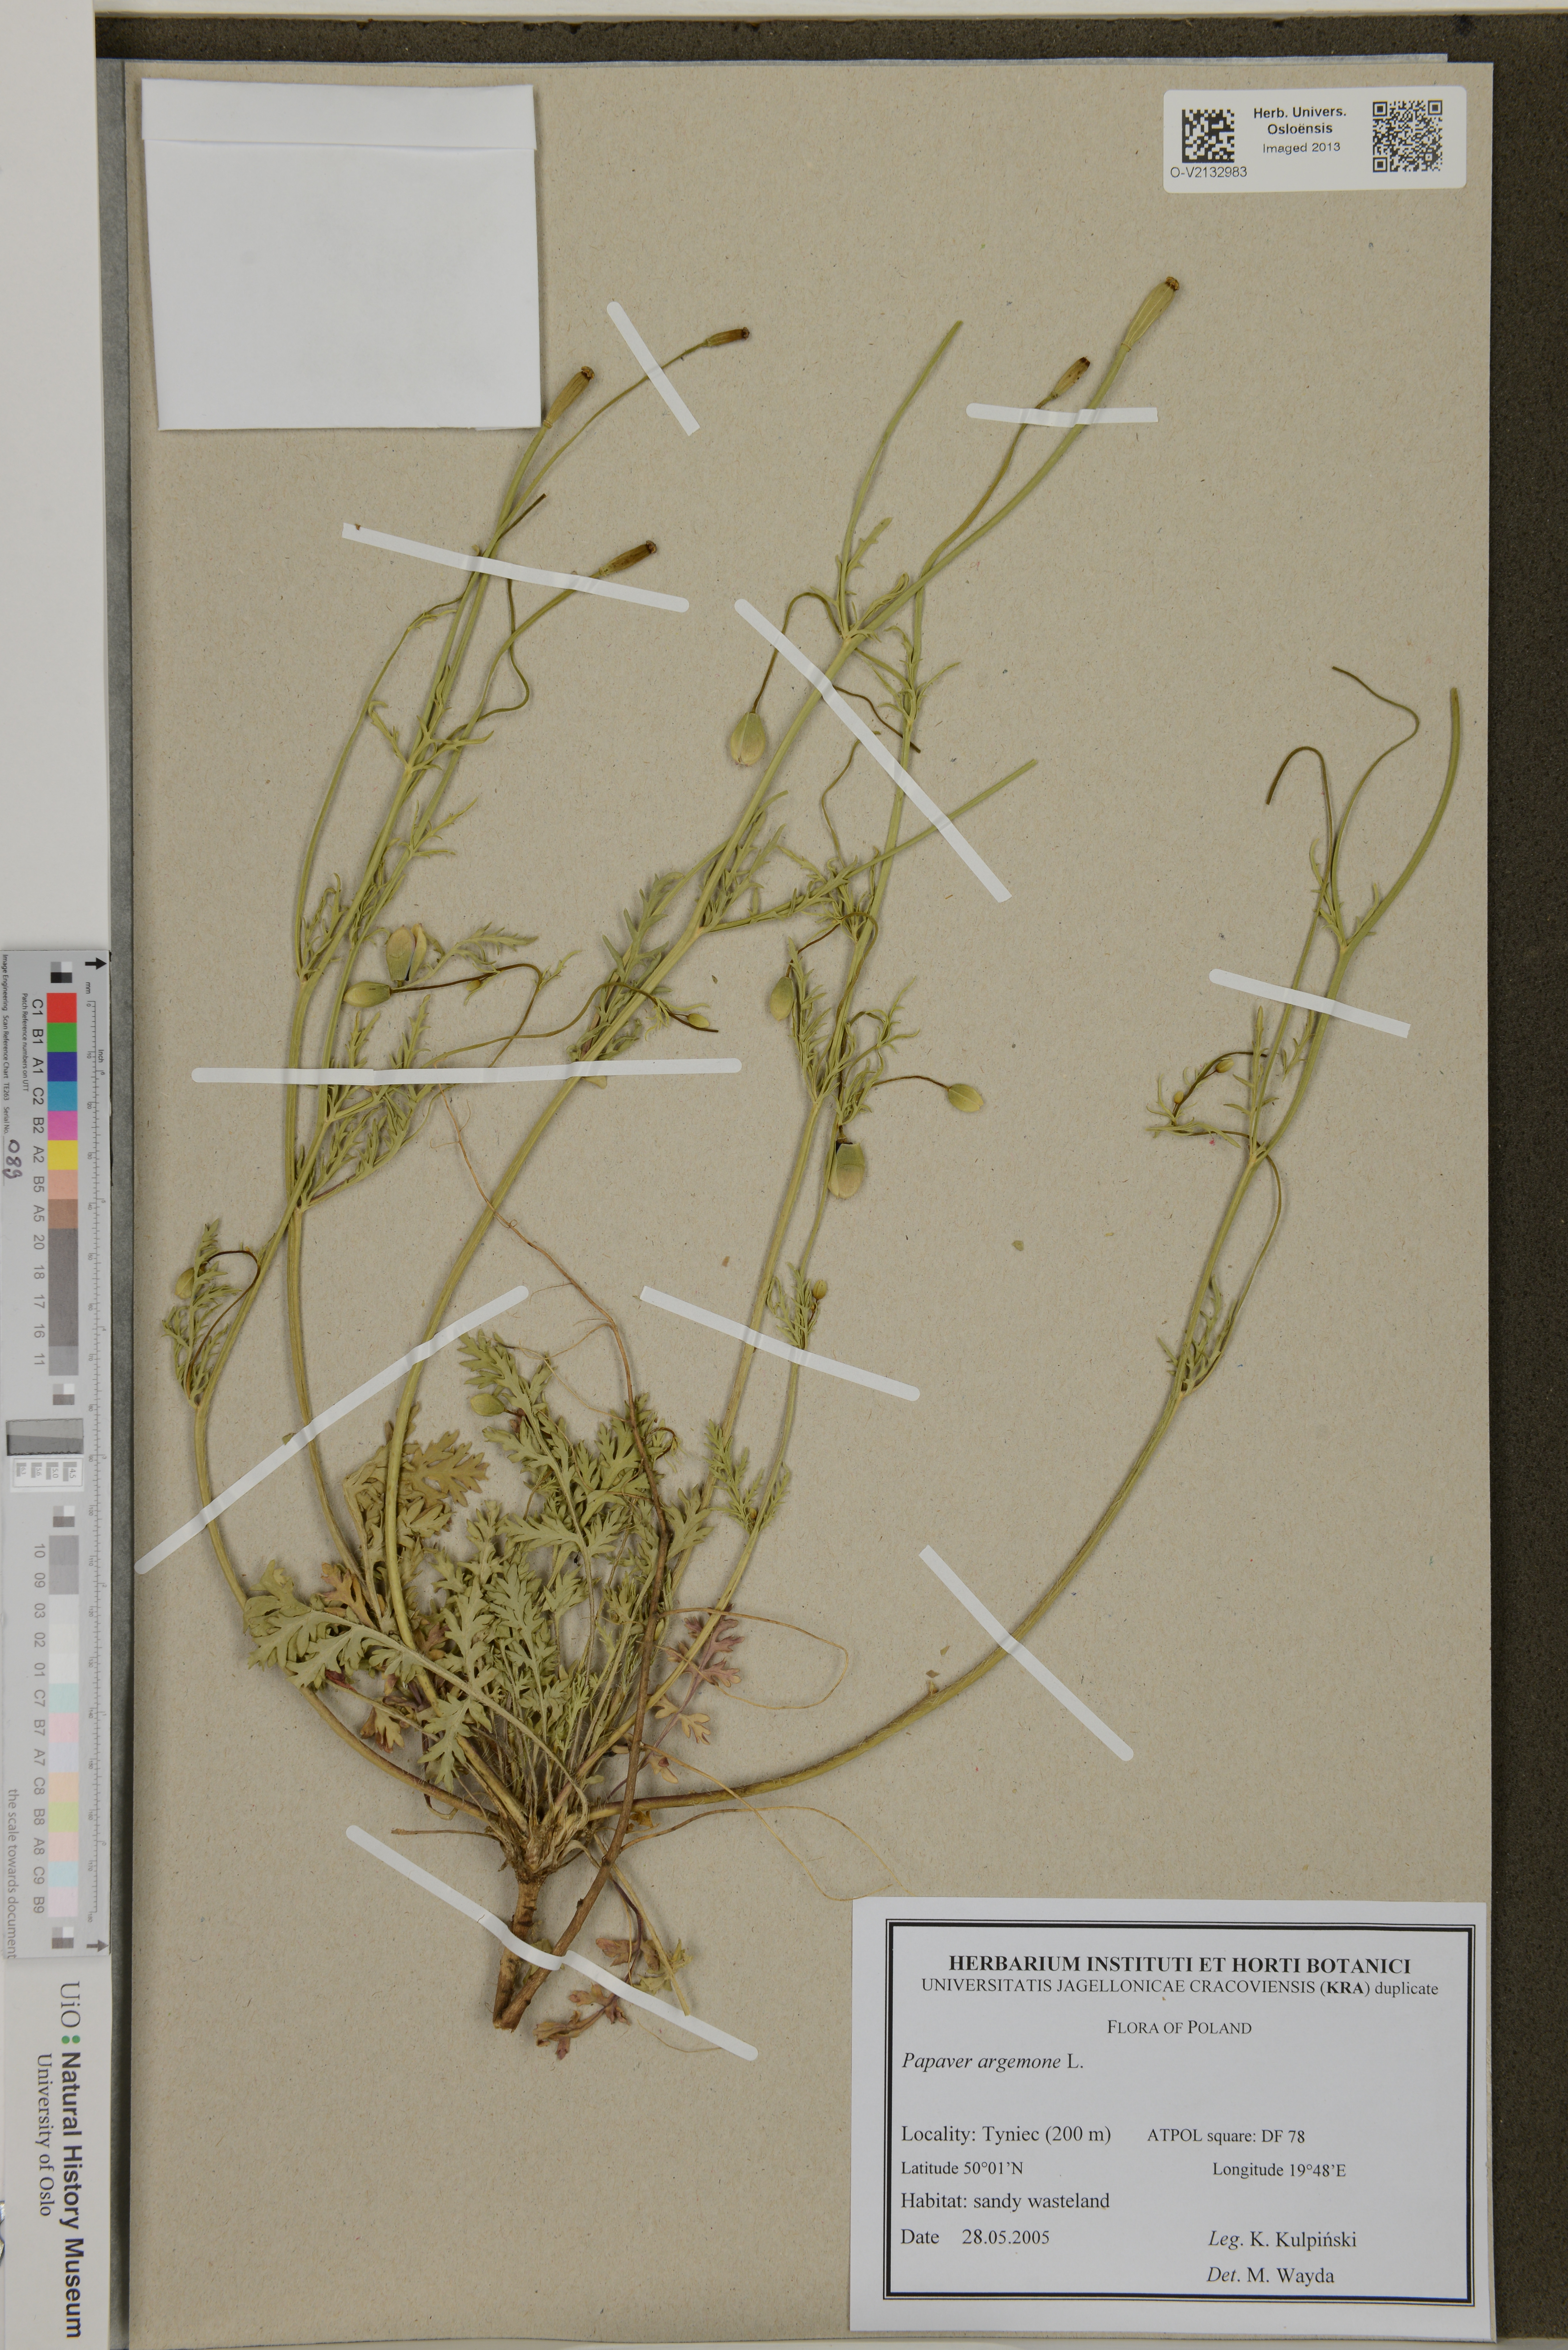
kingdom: Plantae
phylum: Tracheophyta
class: Magnoliopsida
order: Ranunculales
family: Papaveraceae
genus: Roemeria
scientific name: Roemeria argemone
